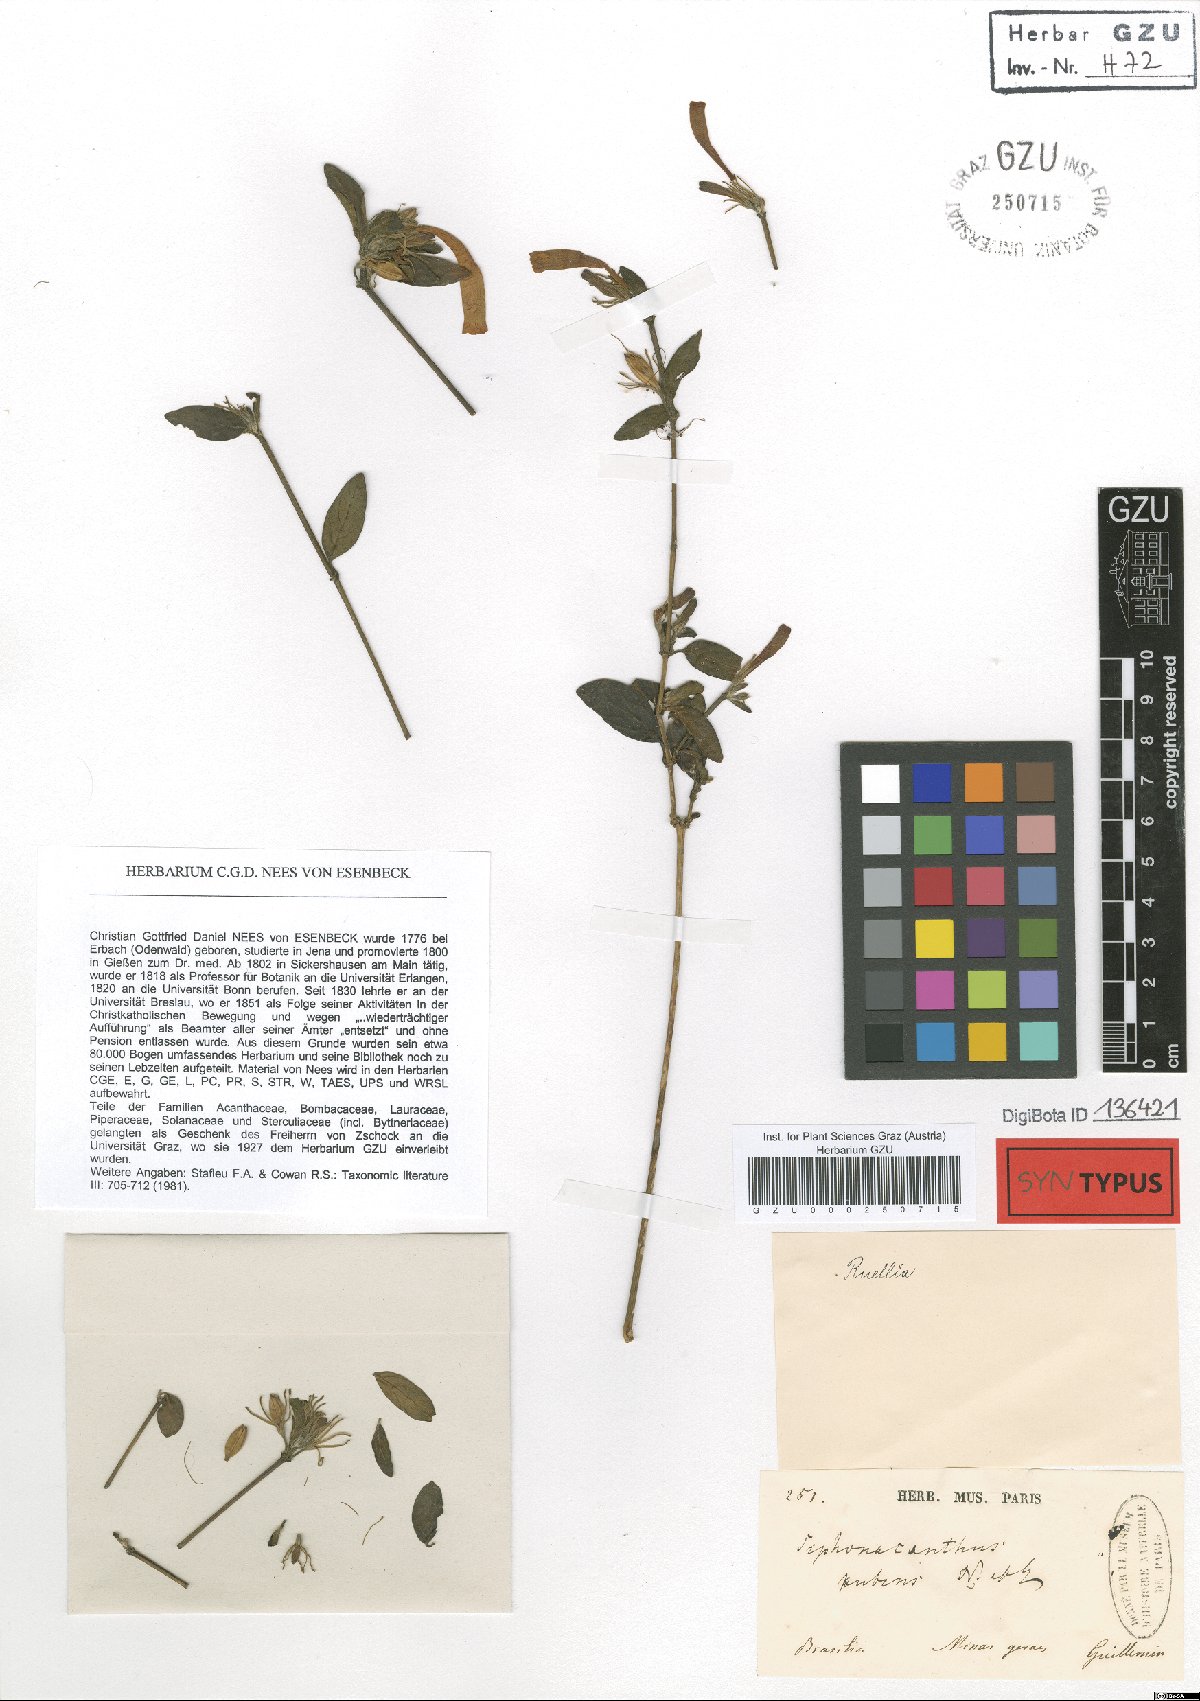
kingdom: Plantae
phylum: Tracheophyta
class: Magnoliopsida
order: Lamiales
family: Acanthaceae
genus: Ruellia
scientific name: Ruellia Siphonacanthus pubens
